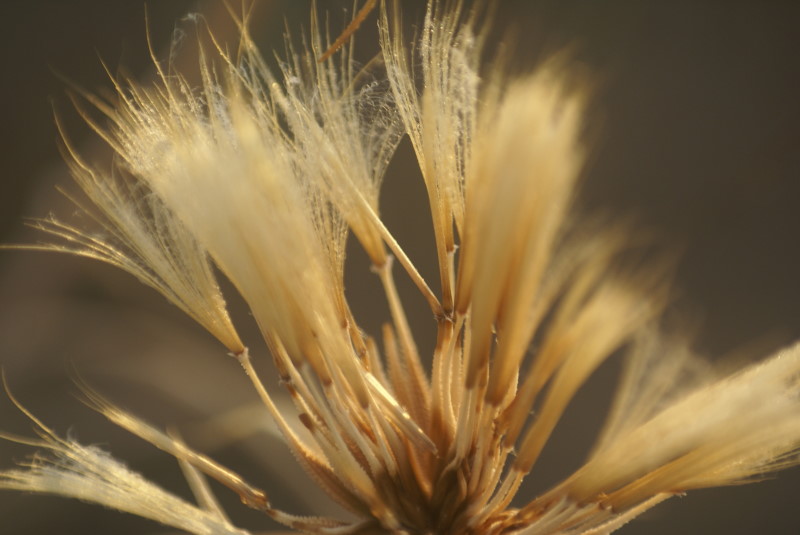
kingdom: Plantae
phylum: Tracheophyta
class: Magnoliopsida
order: Asterales
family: Asteraceae
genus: Scorzonera
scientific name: Scorzonera
